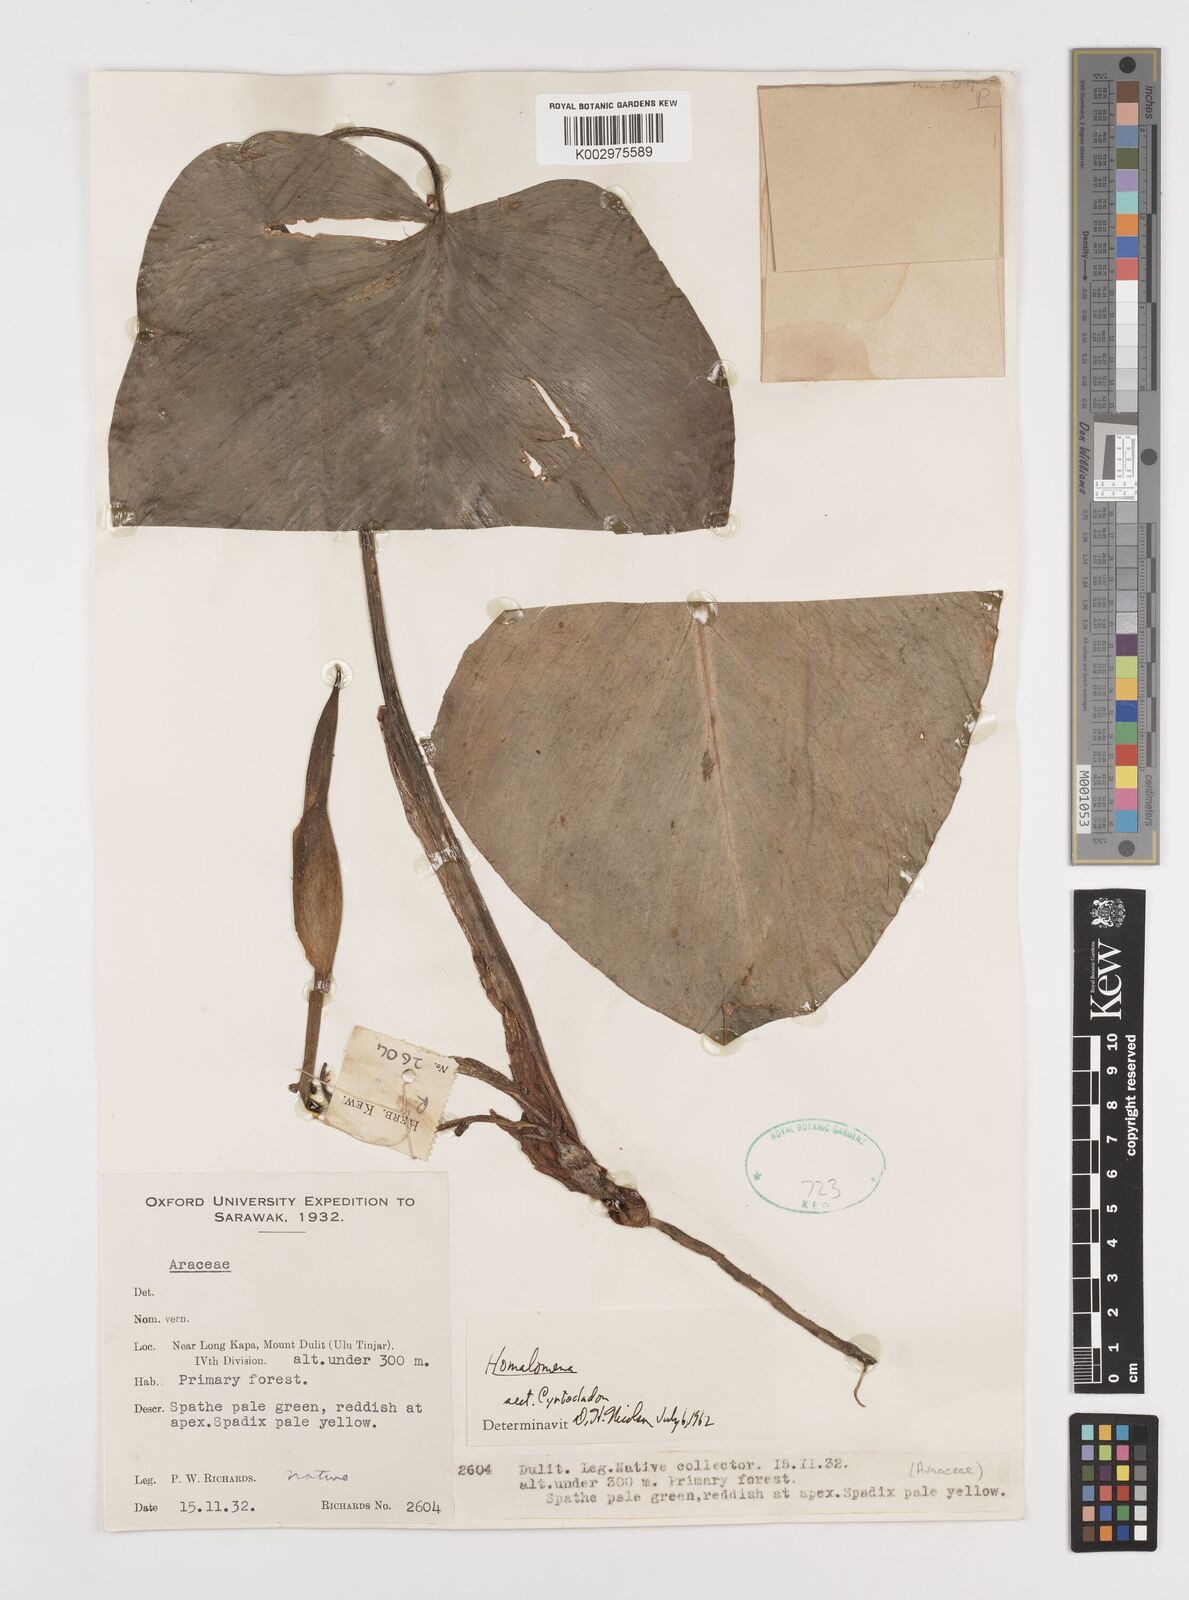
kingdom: Plantae
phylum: Tracheophyta
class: Liliopsida
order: Alismatales
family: Araceae
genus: Homalomena
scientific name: Homalomena
